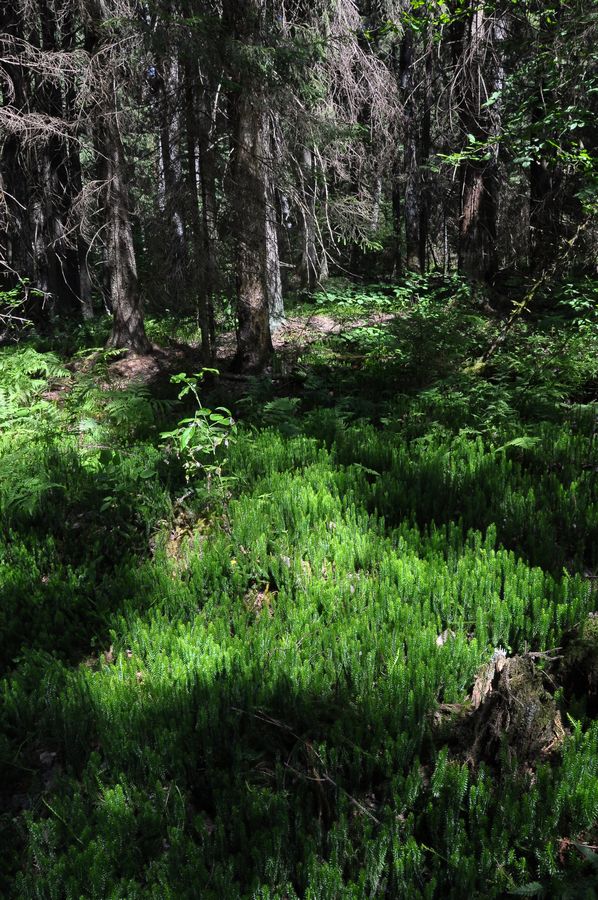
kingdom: Plantae
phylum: Tracheophyta
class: Lycopodiopsida
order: Lycopodiales
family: Lycopodiaceae
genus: Spinulum
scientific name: Spinulum annotinum
